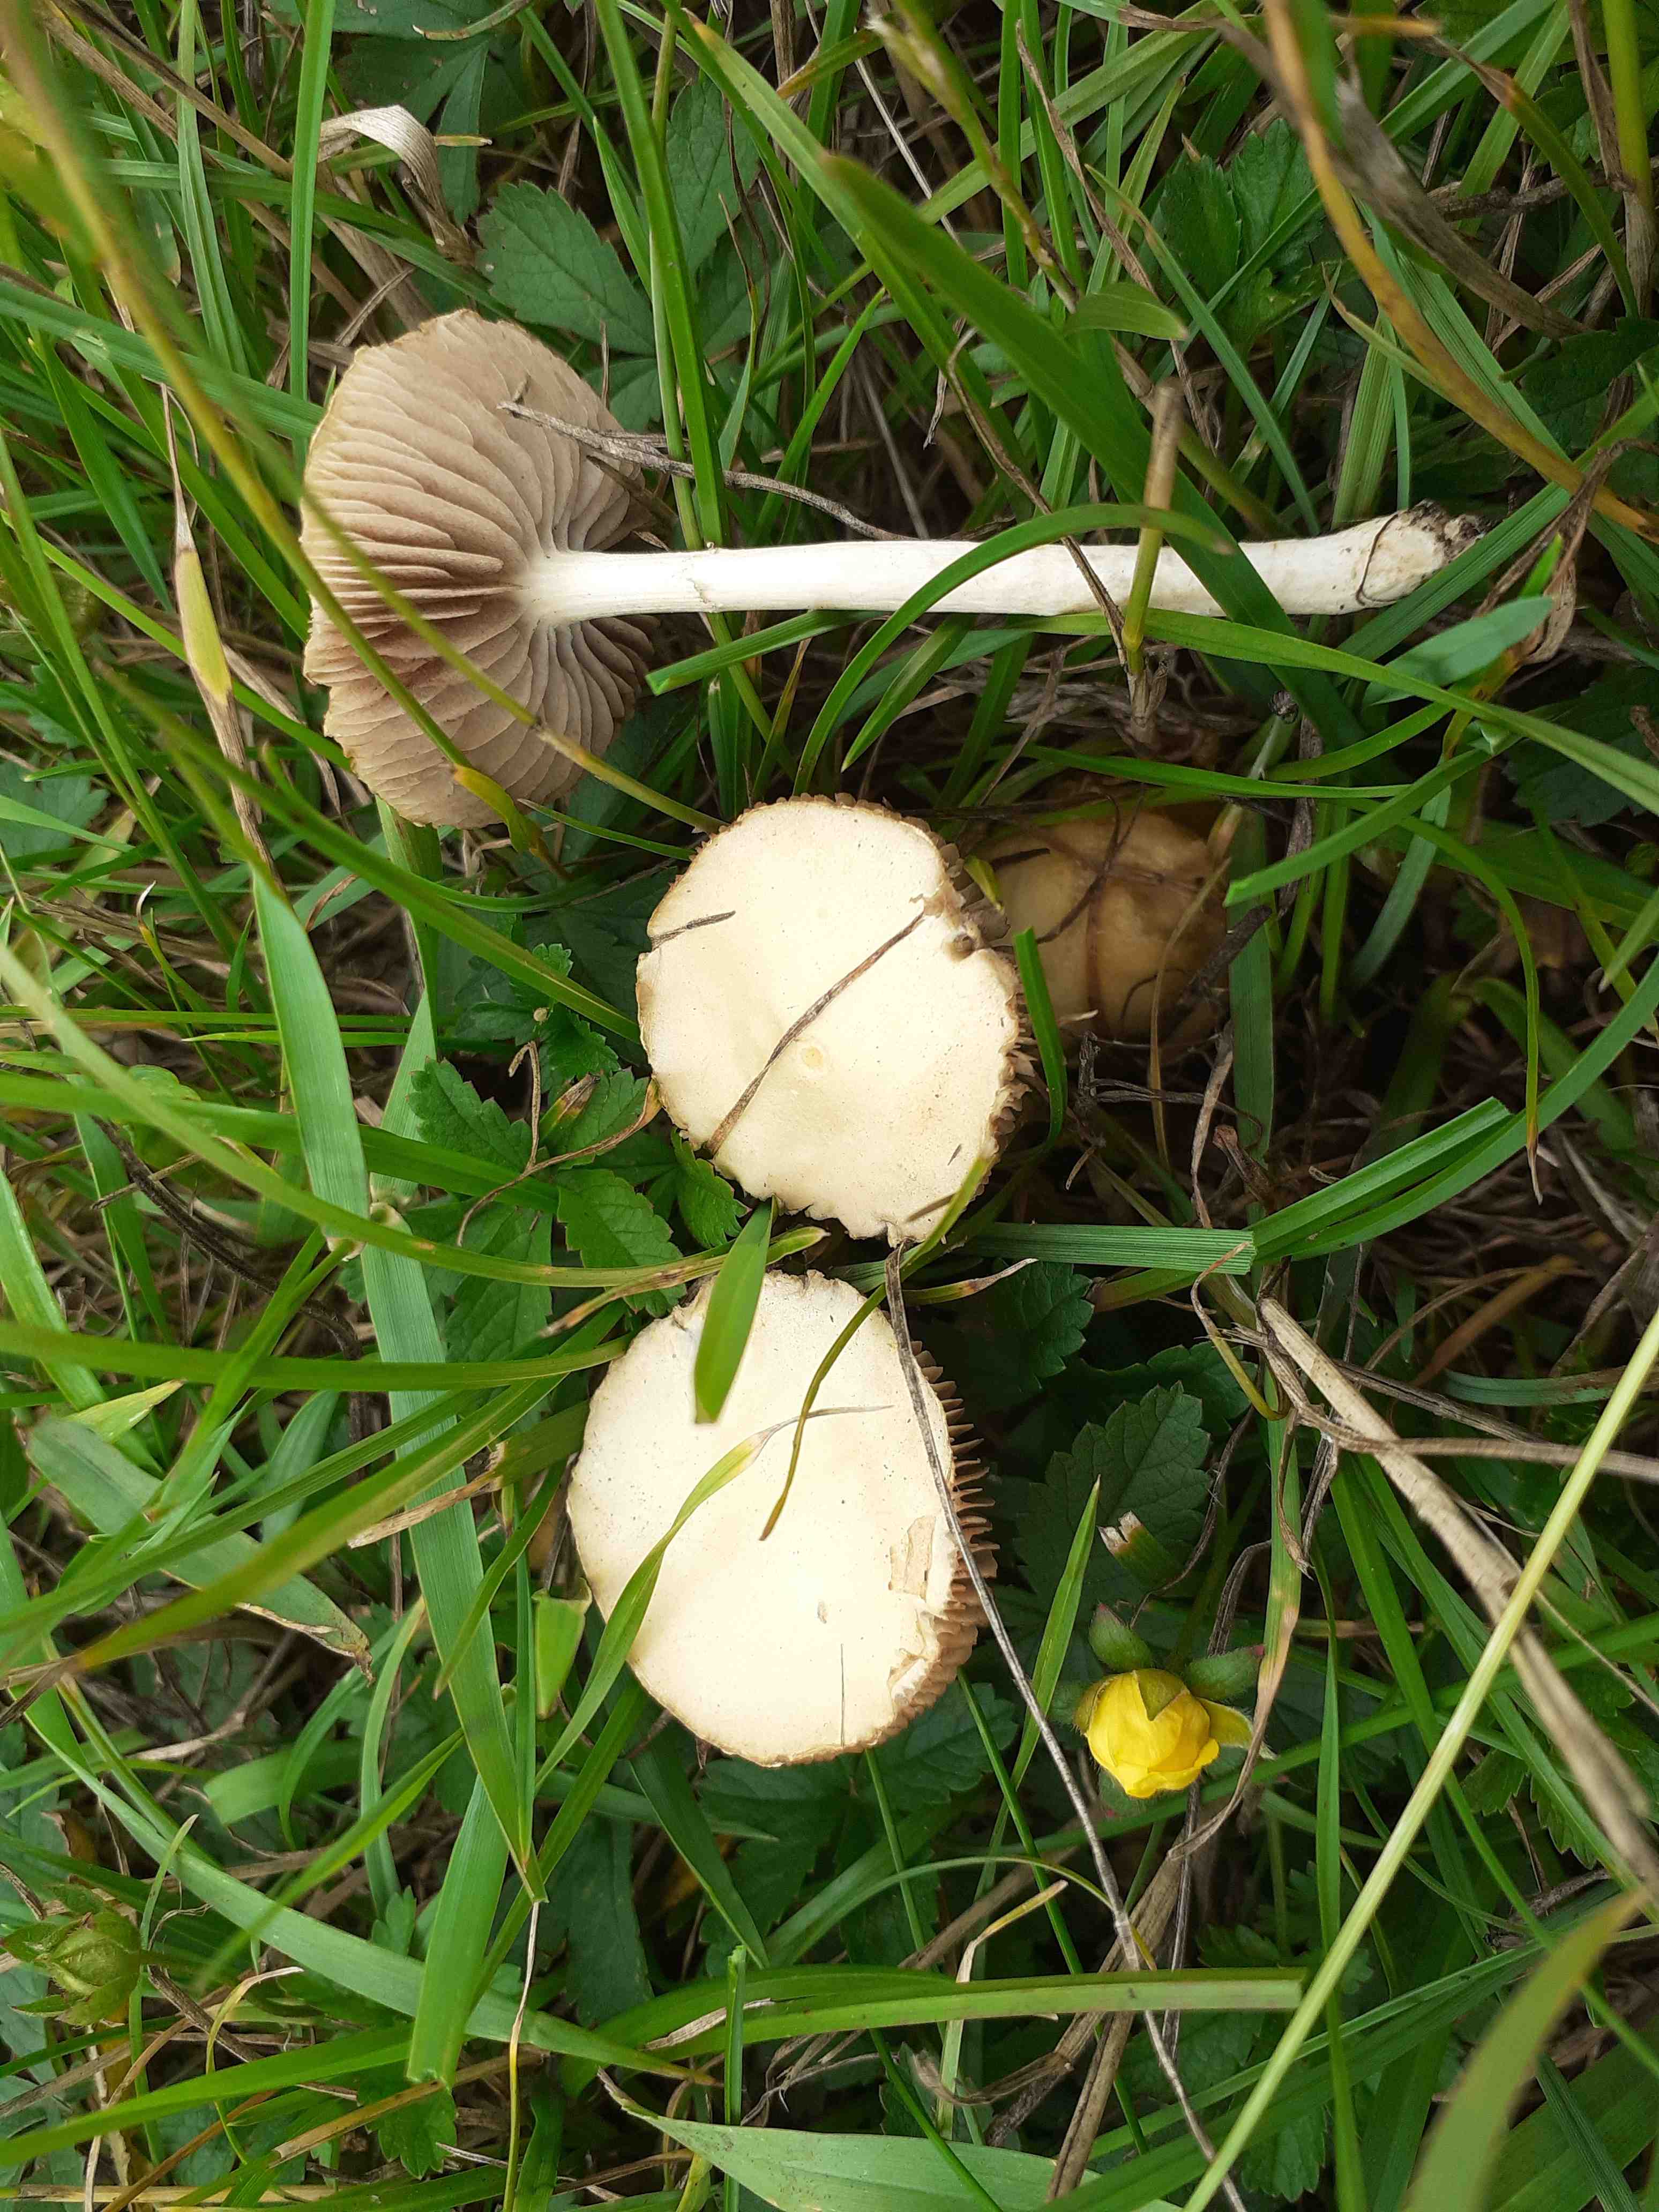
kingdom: Fungi
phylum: Basidiomycota
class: Agaricomycetes
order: Agaricales
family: Strophariaceae
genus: Agrocybe
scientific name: Agrocybe dura
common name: fastkødet agerhat
